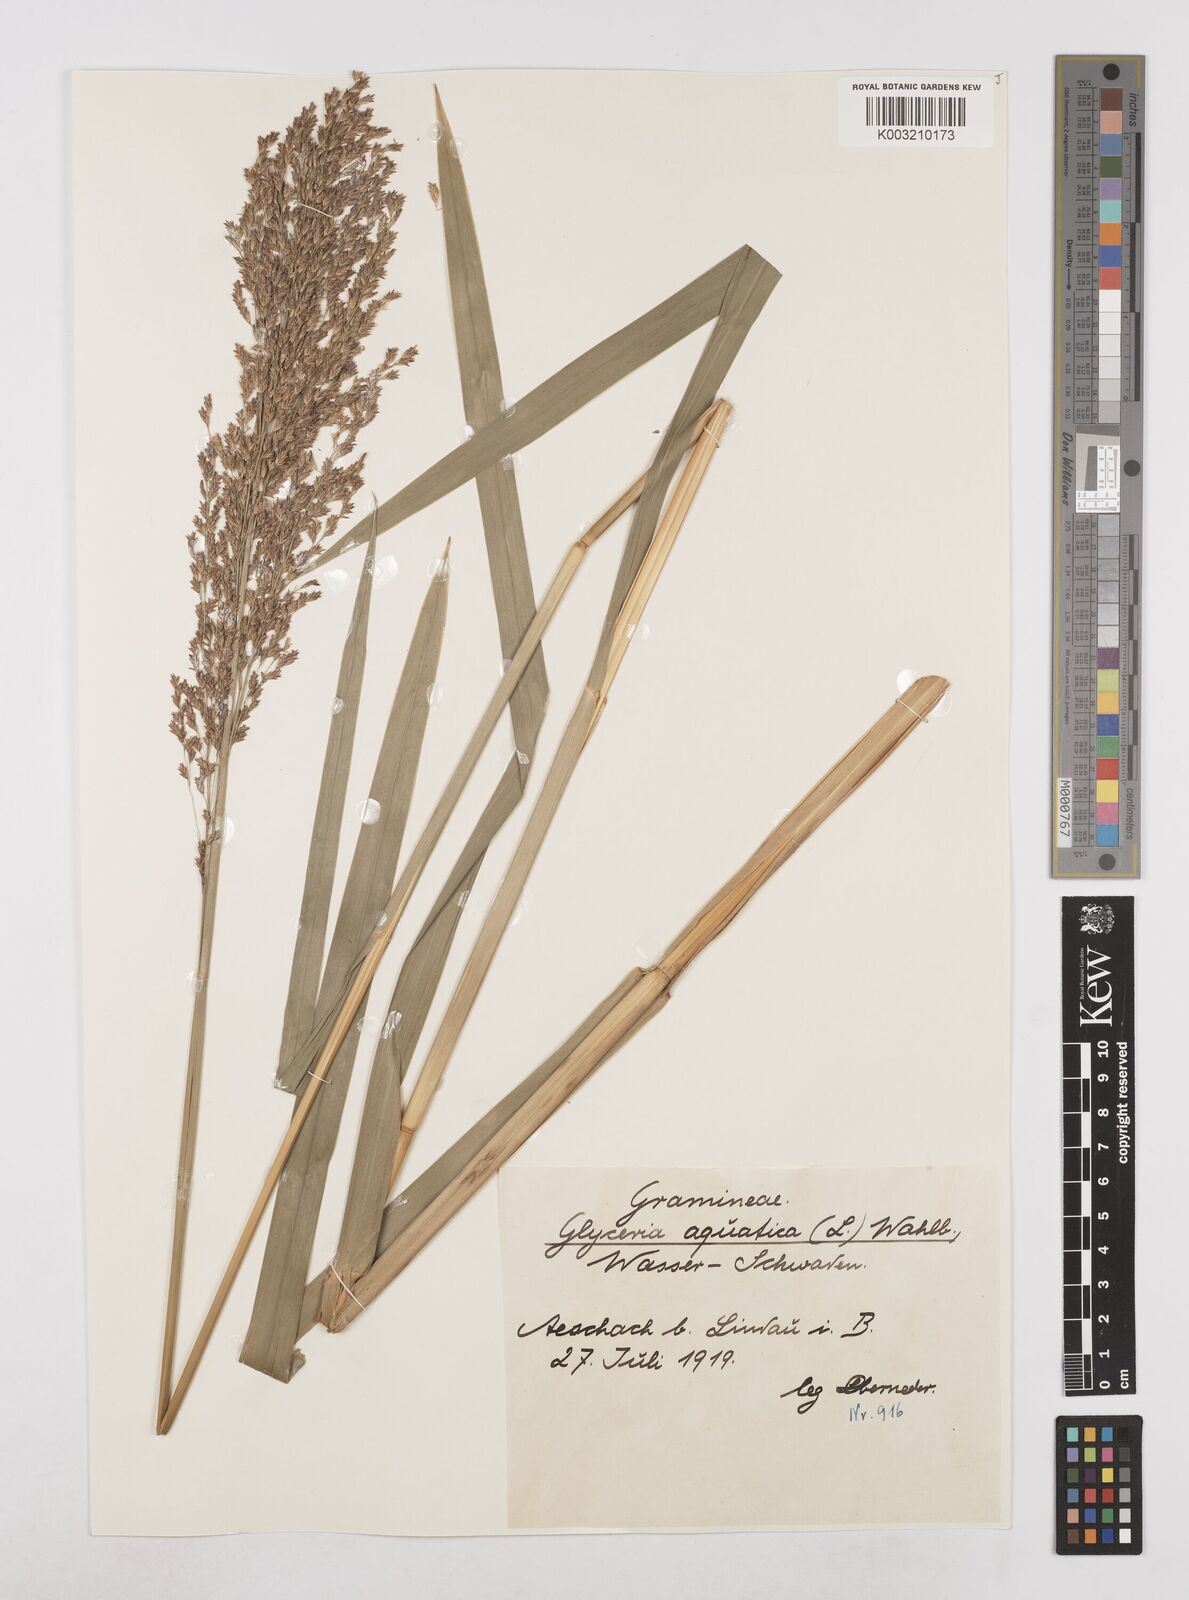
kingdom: Plantae
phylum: Tracheophyta
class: Liliopsida
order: Poales
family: Poaceae
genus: Glyceria
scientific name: Glyceria maxima
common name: Reed mannagrass
